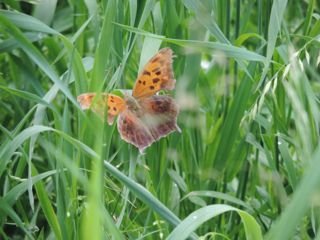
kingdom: Animalia
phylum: Arthropoda
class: Insecta
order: Lepidoptera
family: Nymphalidae
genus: Polygonia
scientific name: Polygonia interrogationis
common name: Question Mark
